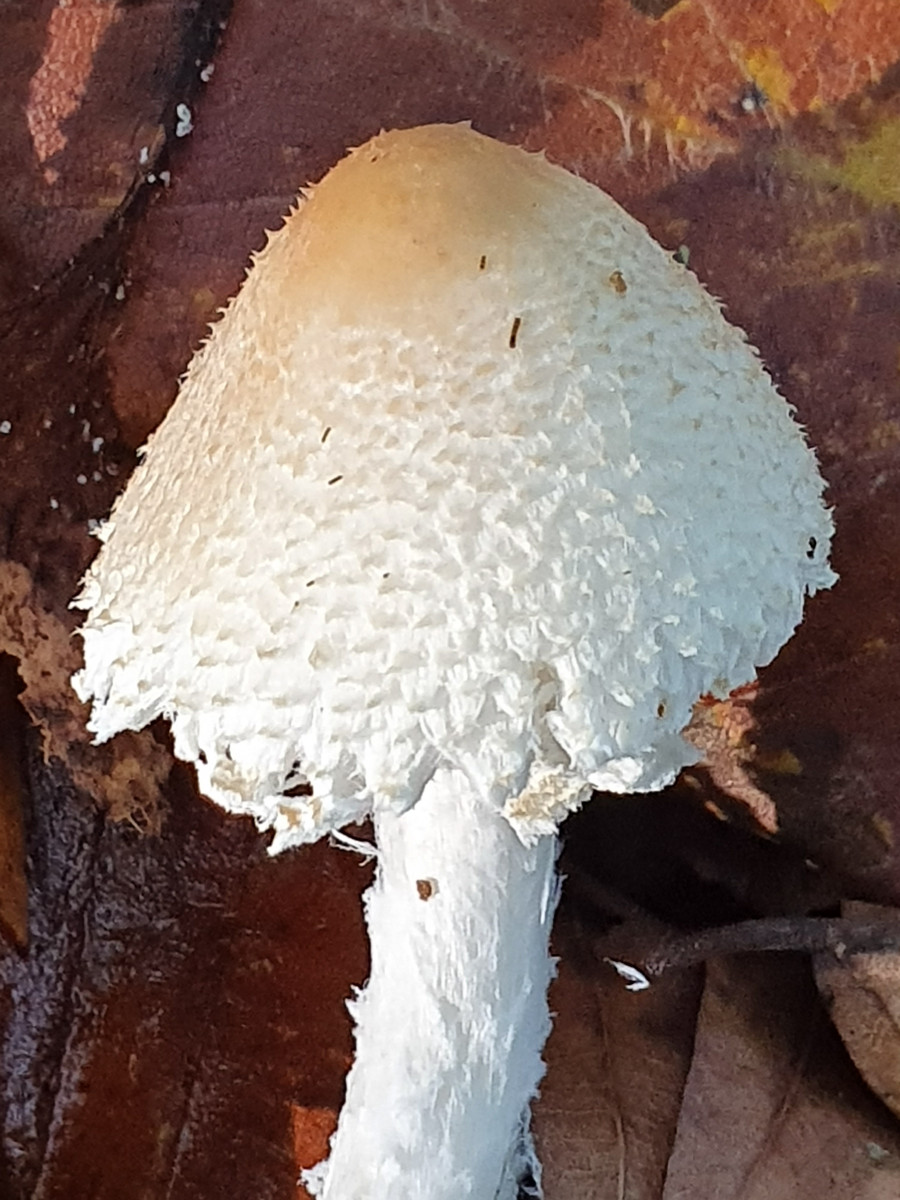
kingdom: Fungi
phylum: Basidiomycota
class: Agaricomycetes
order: Agaricales
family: Agaricaceae
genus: Lepiota
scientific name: Lepiota clypeolaria
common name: flosset parasolhat
